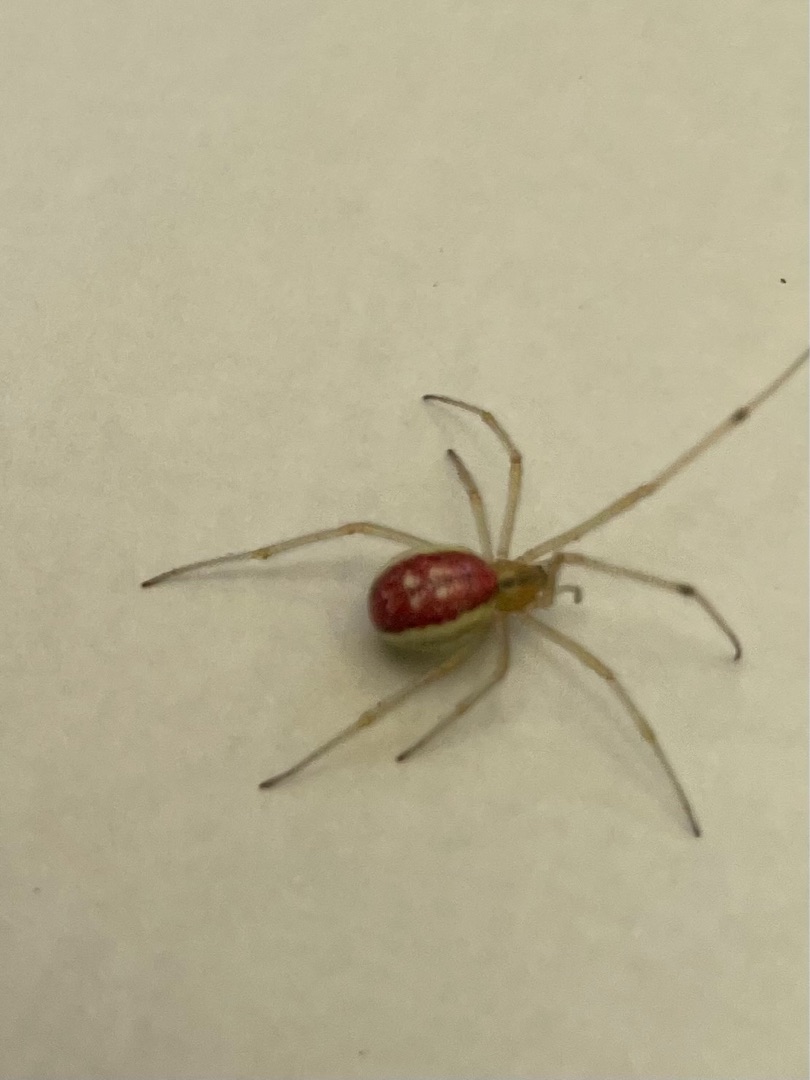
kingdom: Animalia
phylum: Arthropoda
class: Arachnida
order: Araneae
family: Theridiidae
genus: Enoplognatha
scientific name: Enoplognatha ovata
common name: Perleedderkop
